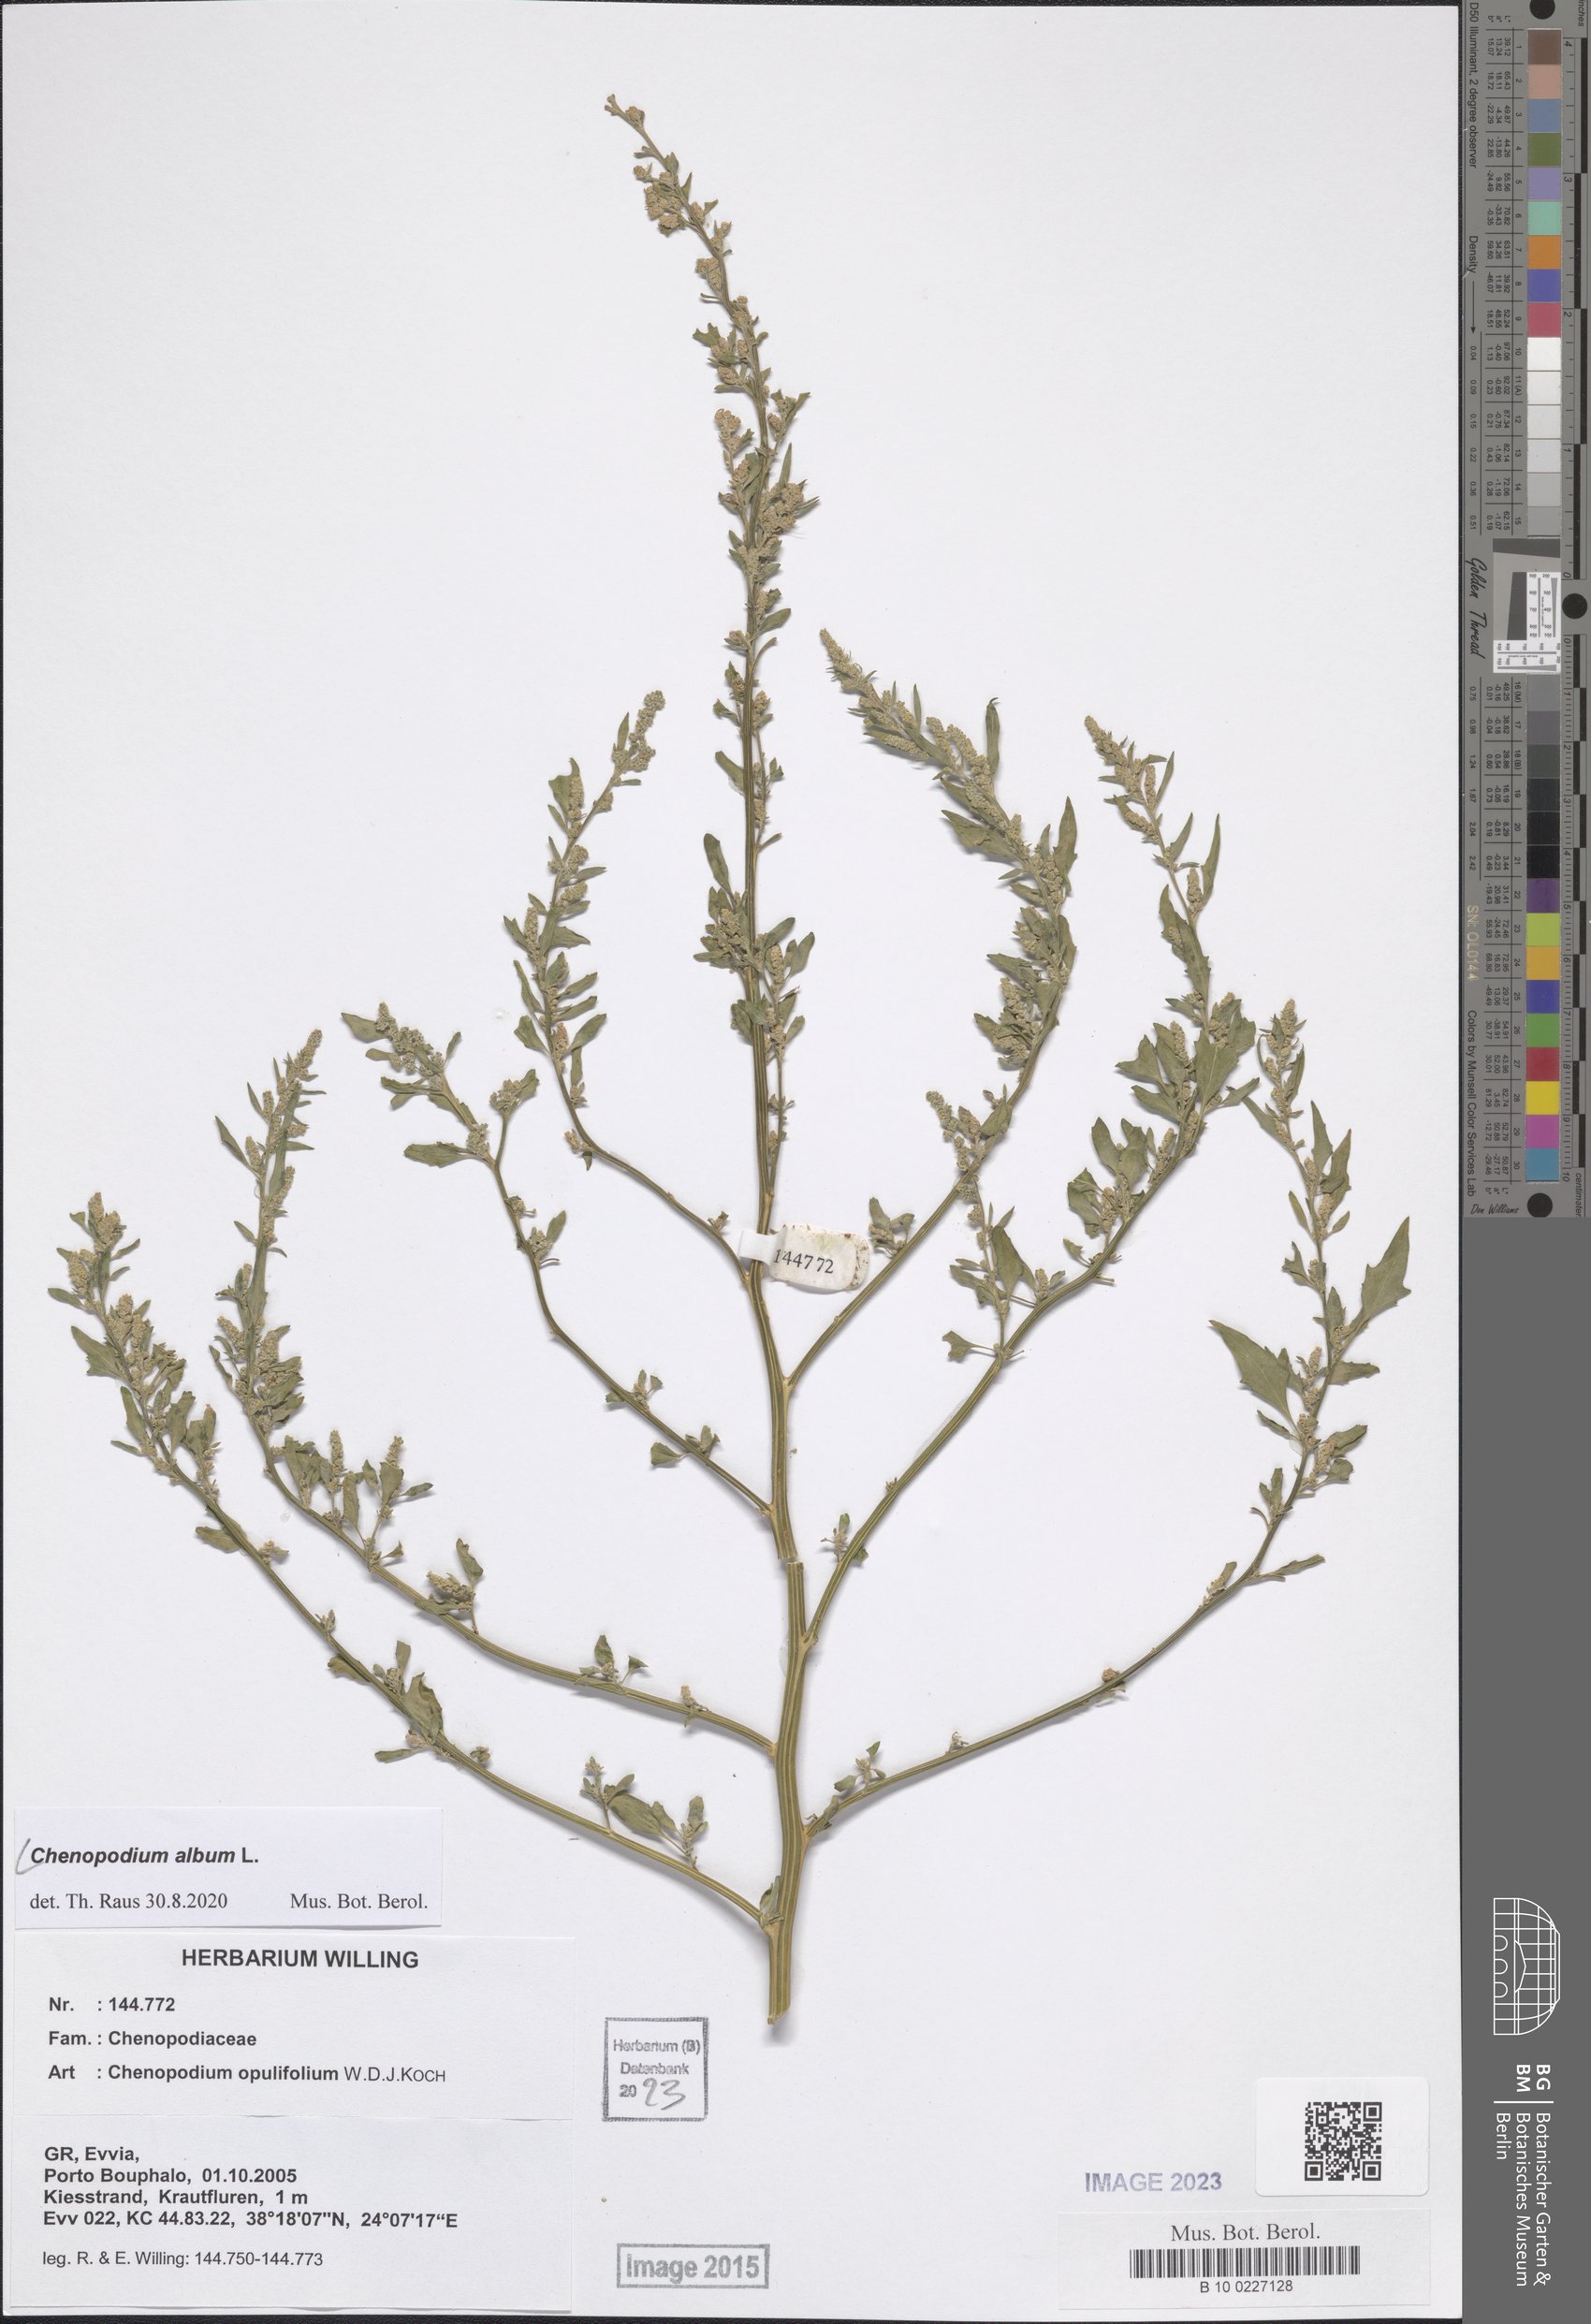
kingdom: Plantae
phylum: Tracheophyta
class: Magnoliopsida
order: Caryophyllales
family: Amaranthaceae
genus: Chenopodium
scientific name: Chenopodium album
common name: Fat-hen
